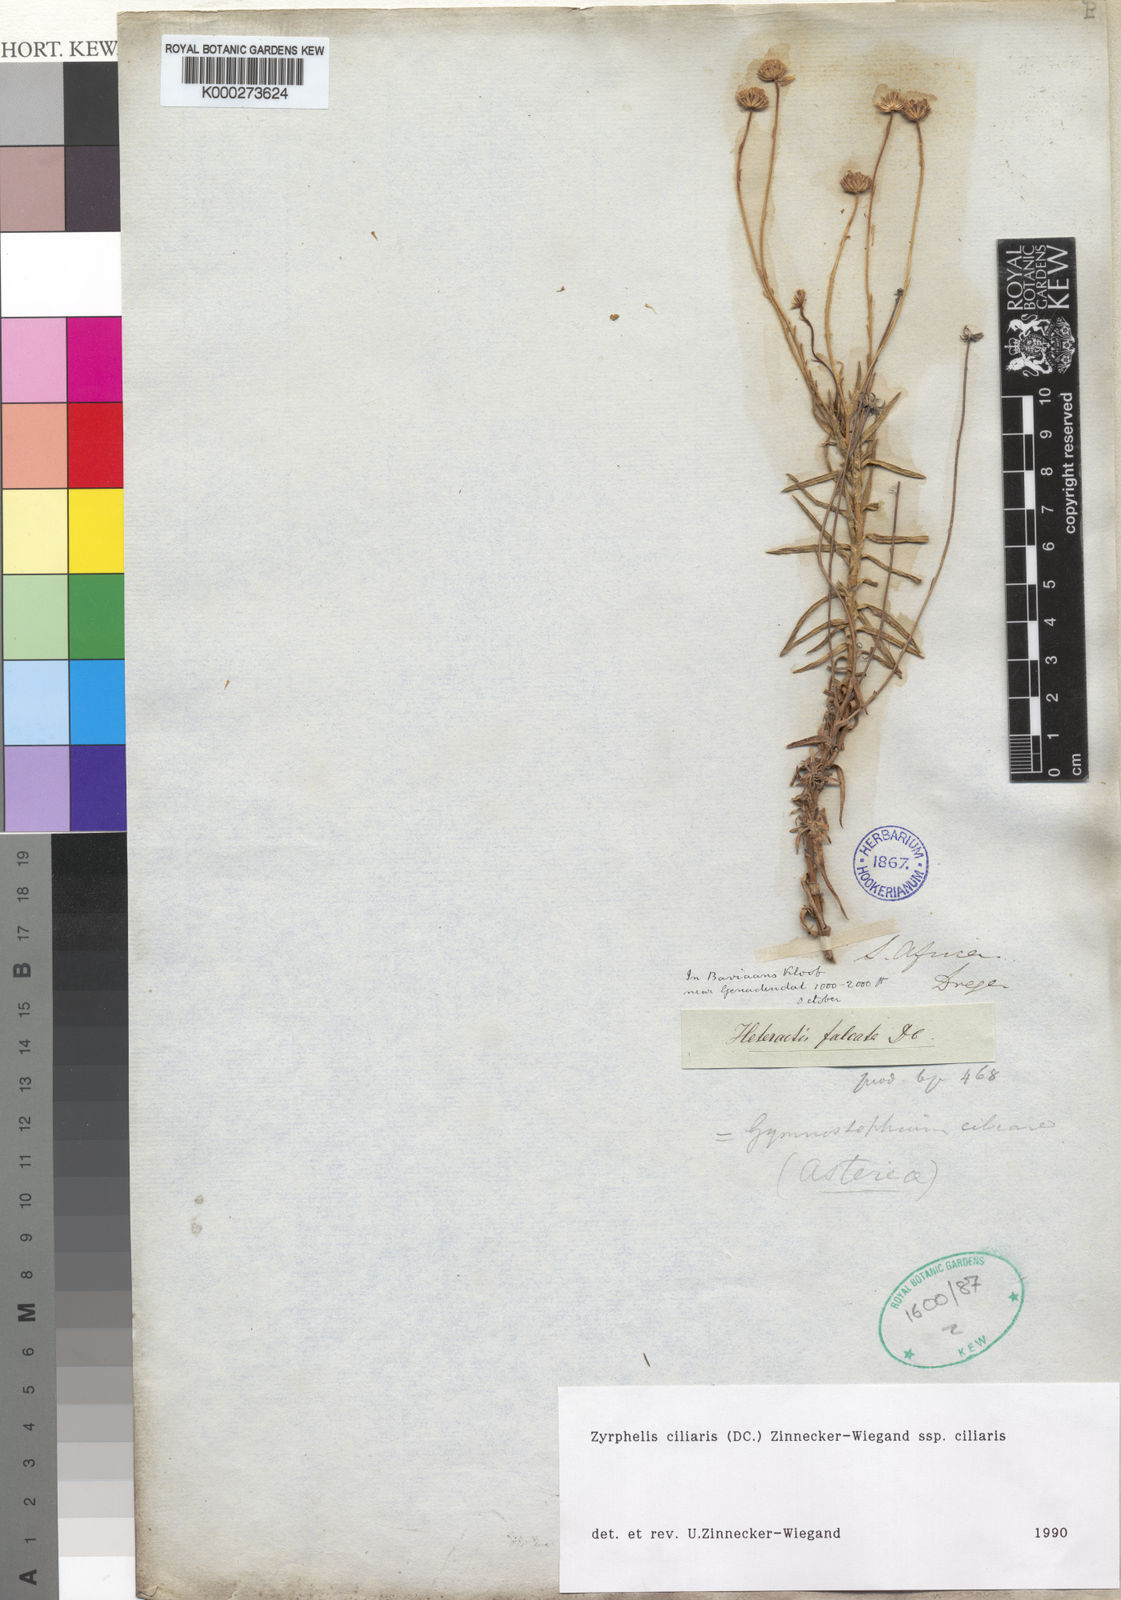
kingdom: Plantae
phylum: Tracheophyta
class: Magnoliopsida
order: Asterales
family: Asteraceae
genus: Zyrphelis
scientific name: Zyrphelis
